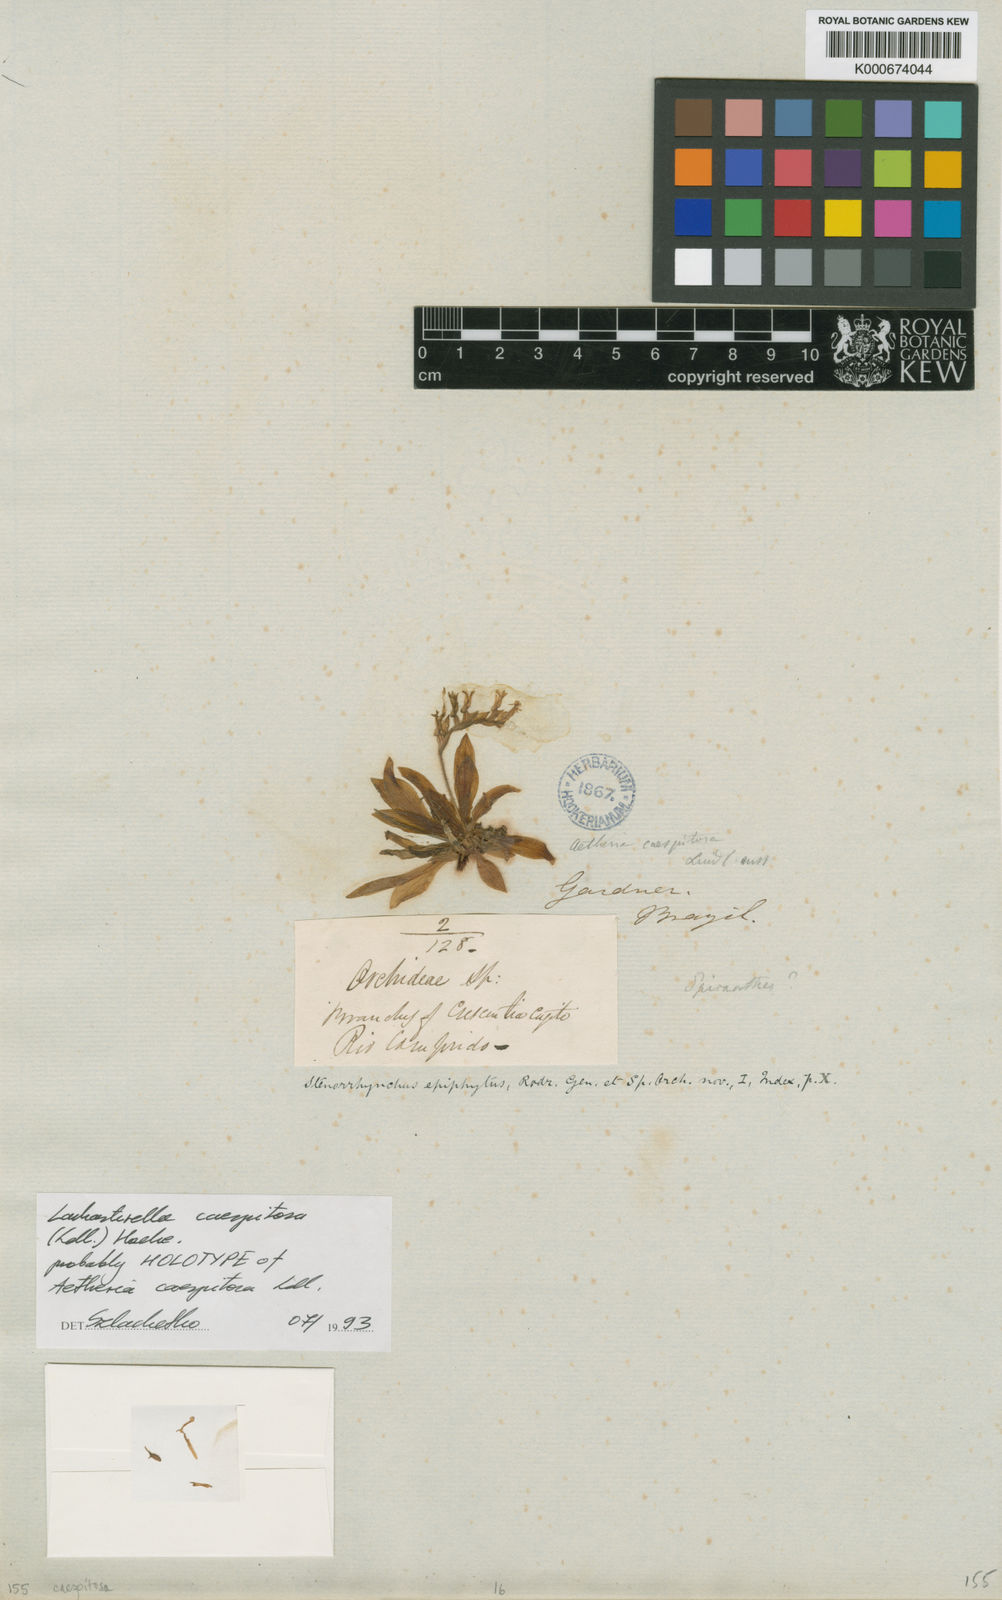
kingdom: Plantae
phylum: Tracheophyta
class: Liliopsida
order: Asparagales
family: Orchidaceae
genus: Lankesterella
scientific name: Lankesterella caespitosa
